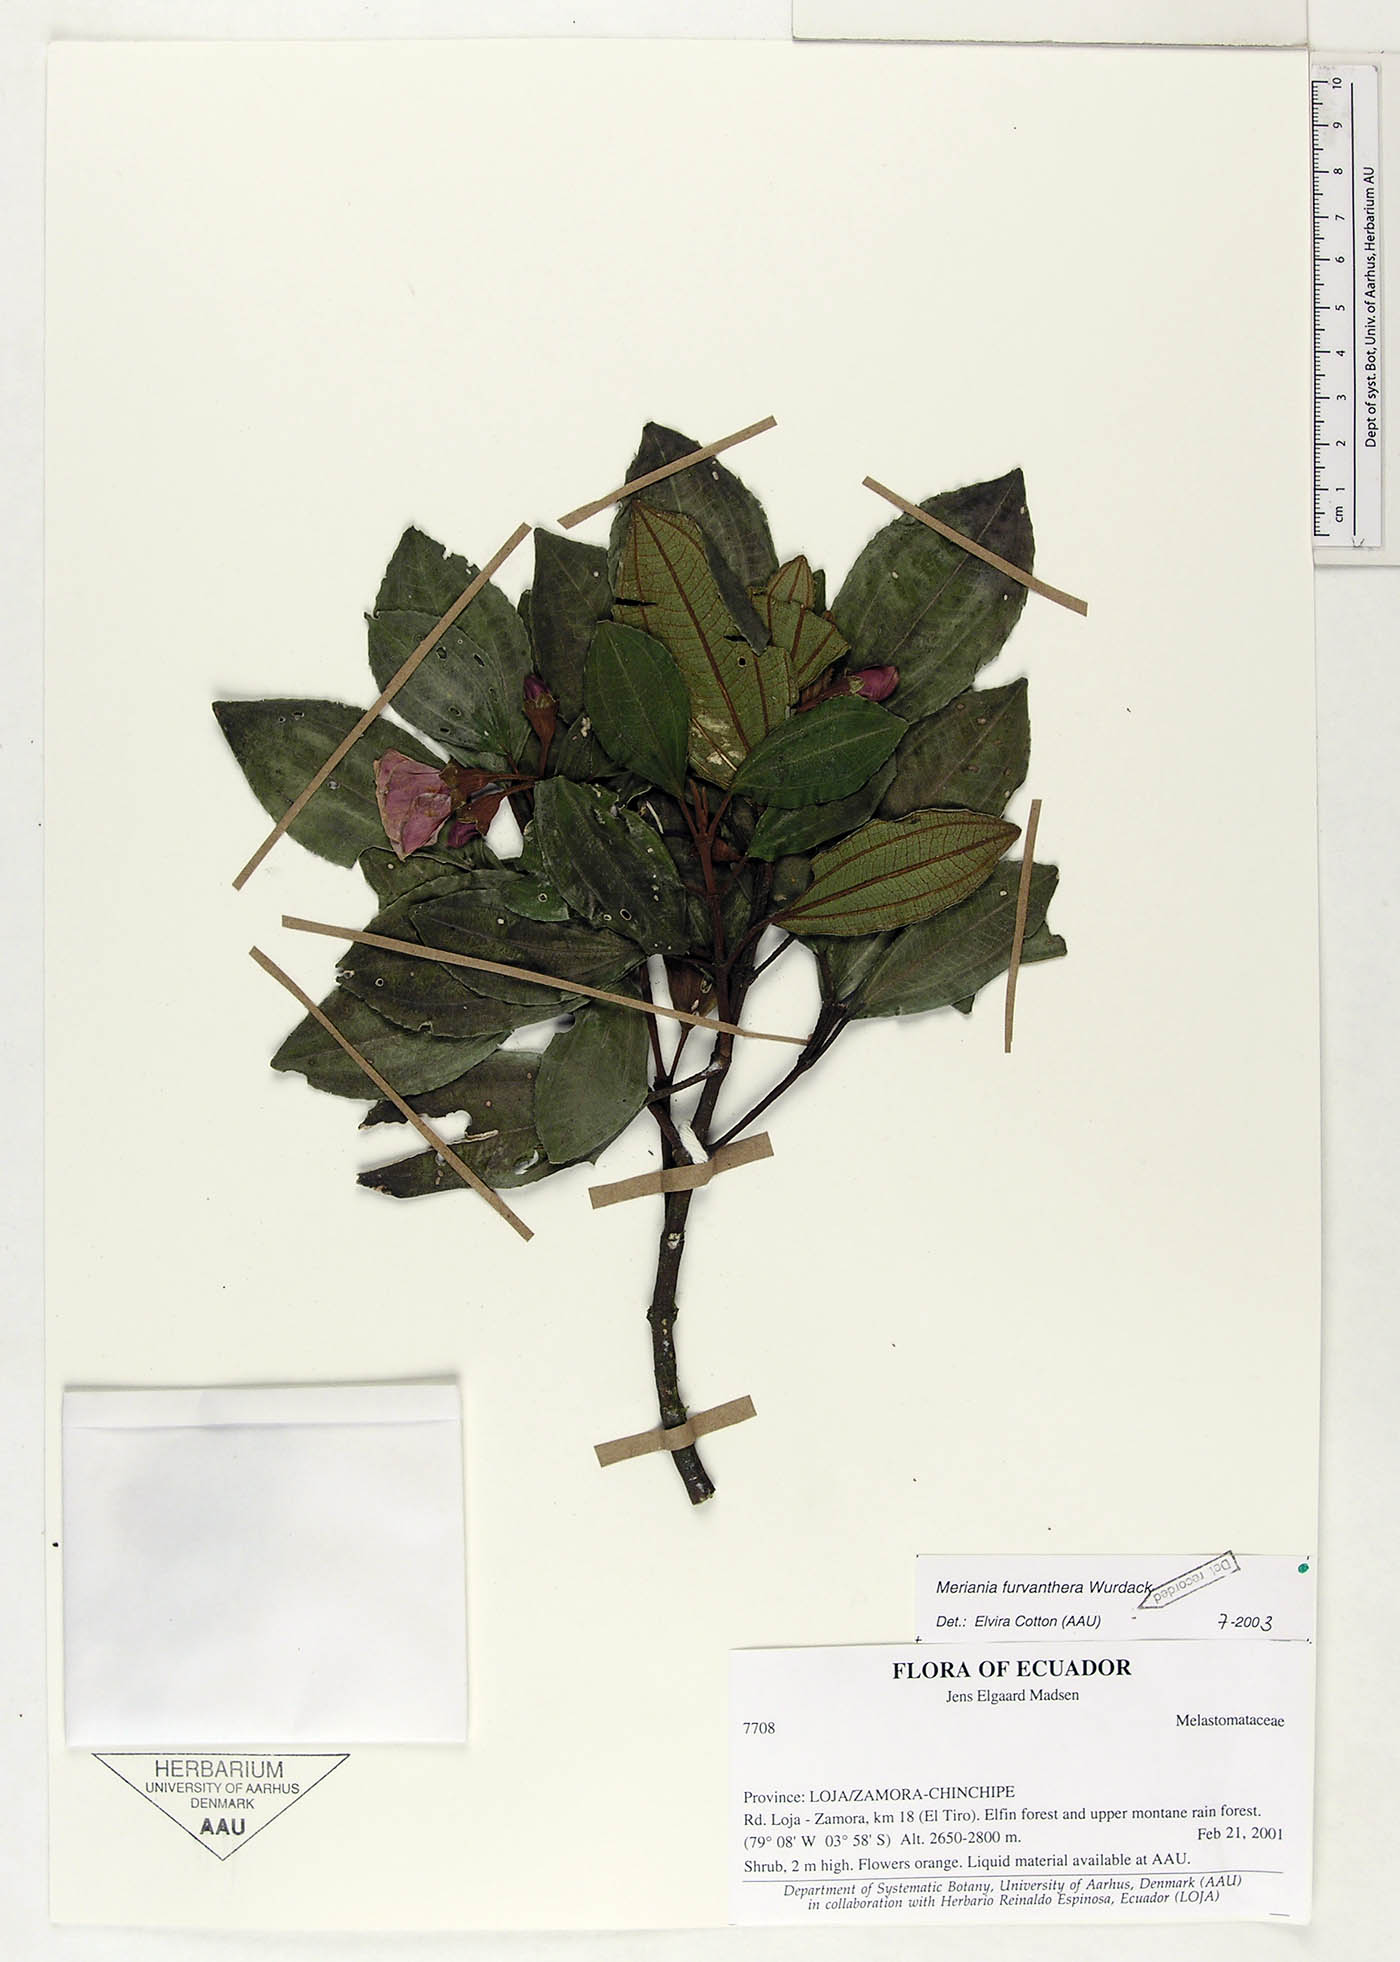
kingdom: Plantae
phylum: Tracheophyta
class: Magnoliopsida
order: Myrtales
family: Melastomataceae
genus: Meriania
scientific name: Meriania furvanthera
